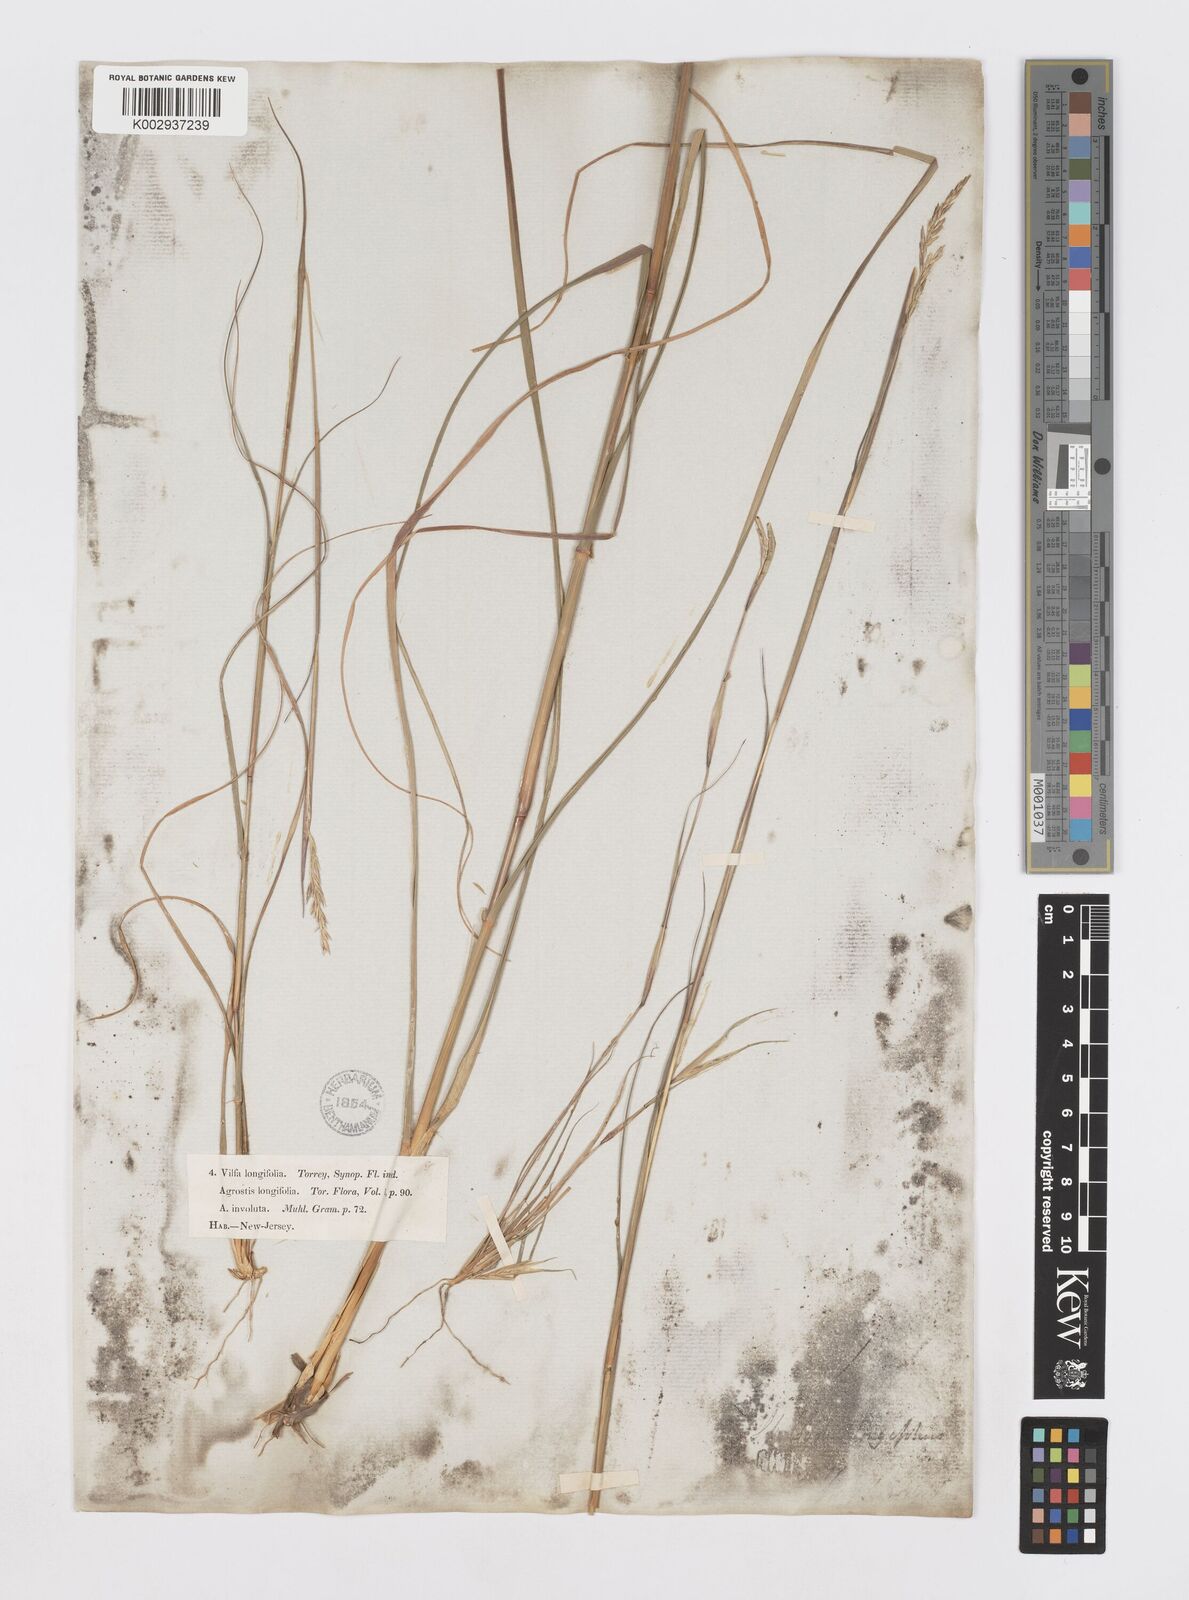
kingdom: Plantae
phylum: Tracheophyta
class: Liliopsida
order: Poales
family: Poaceae
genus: Sporobolus
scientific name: Sporobolus clandestinus
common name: Hidden dropseed
